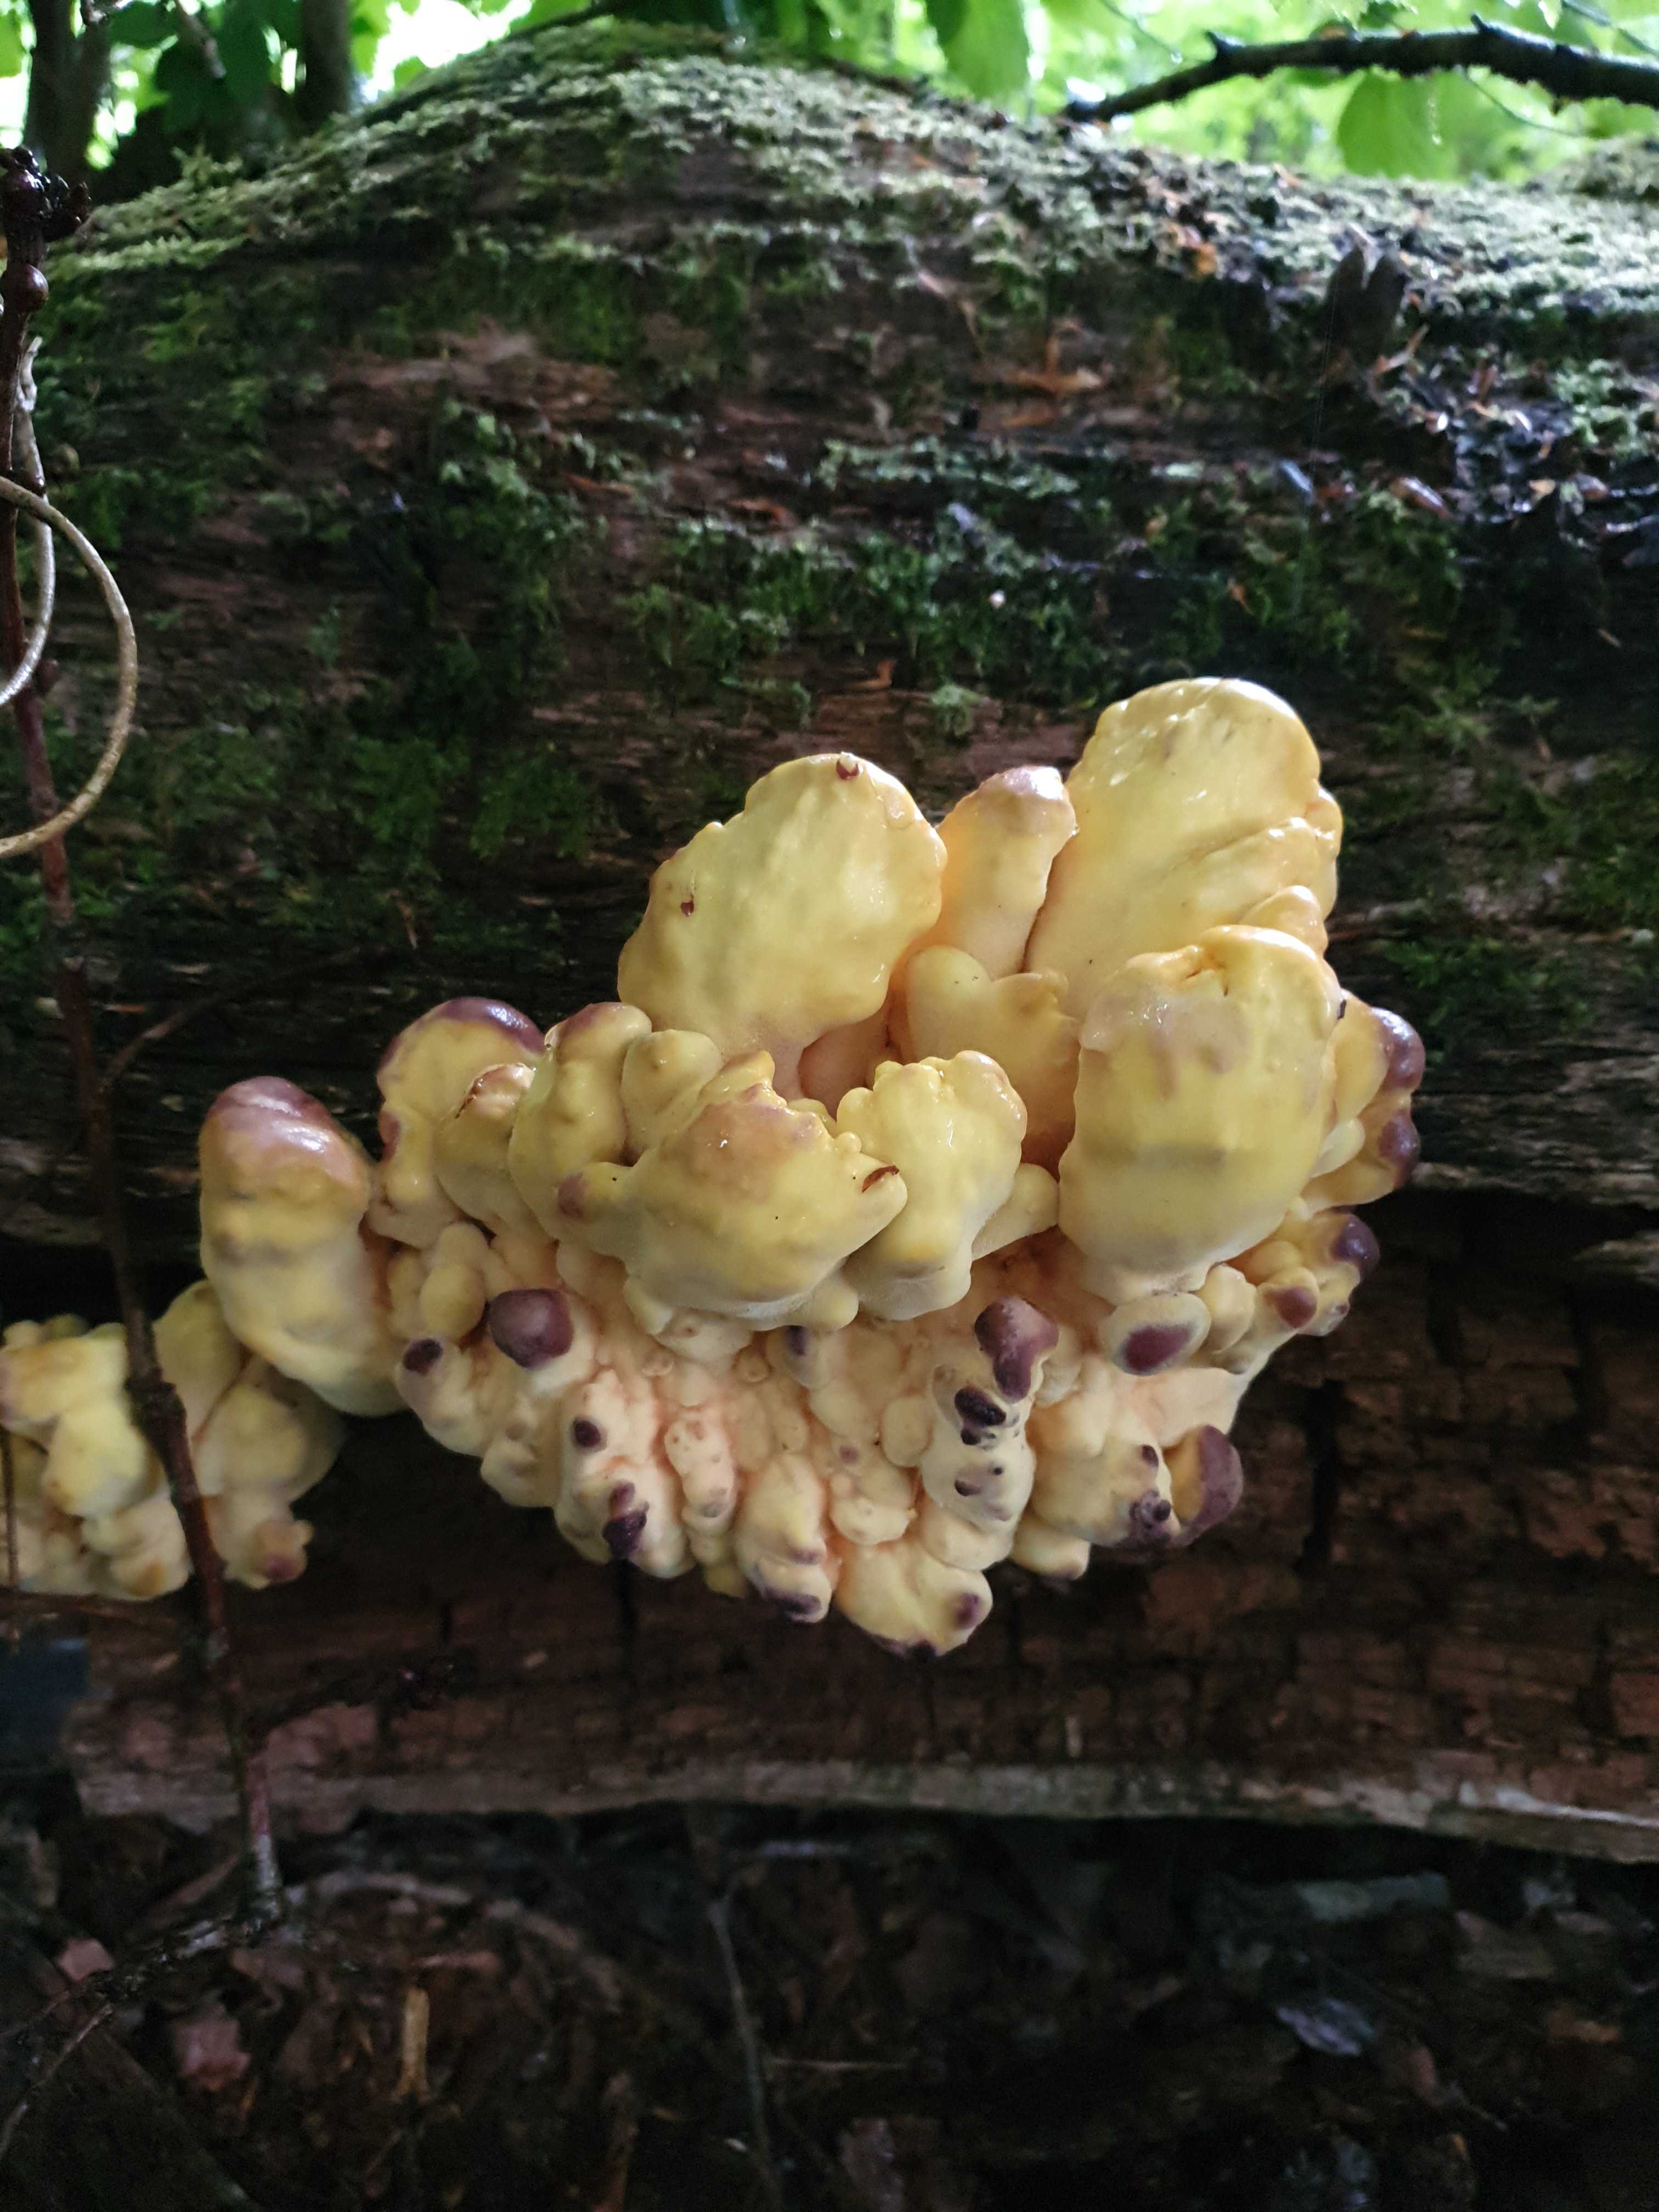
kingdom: Fungi
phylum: Basidiomycota
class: Agaricomycetes
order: Polyporales
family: Laetiporaceae
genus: Laetiporus
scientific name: Laetiporus sulphureus
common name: svovlporesvamp
